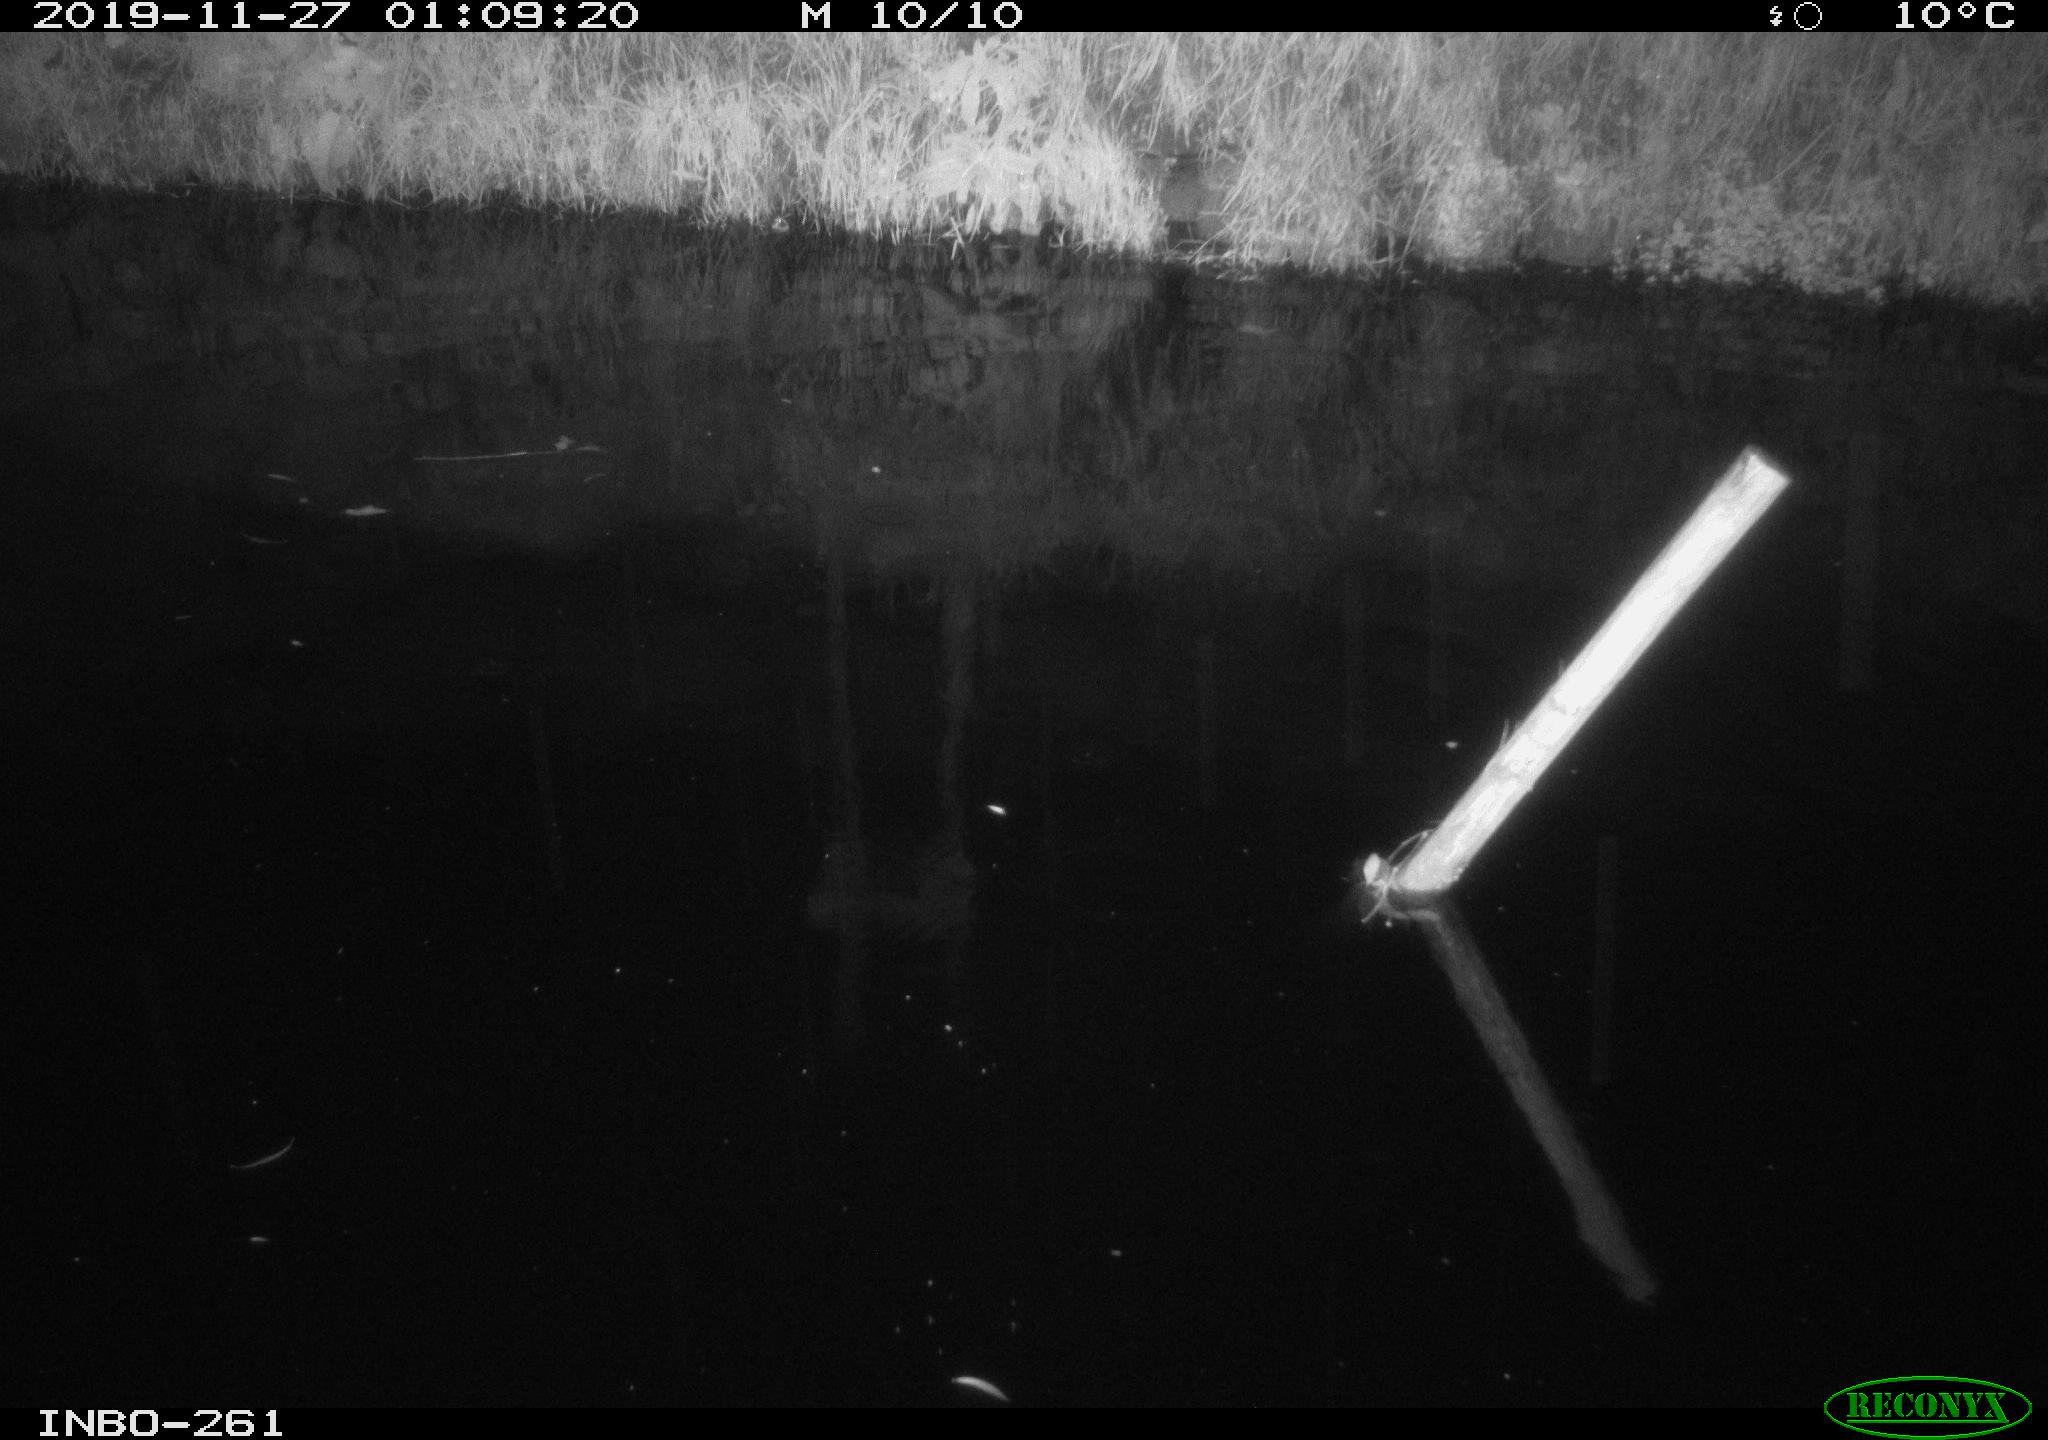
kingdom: Animalia
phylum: Chordata
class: Aves
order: Anseriformes
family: Anatidae
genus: Anas
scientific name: Anas platyrhynchos
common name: Mallard
